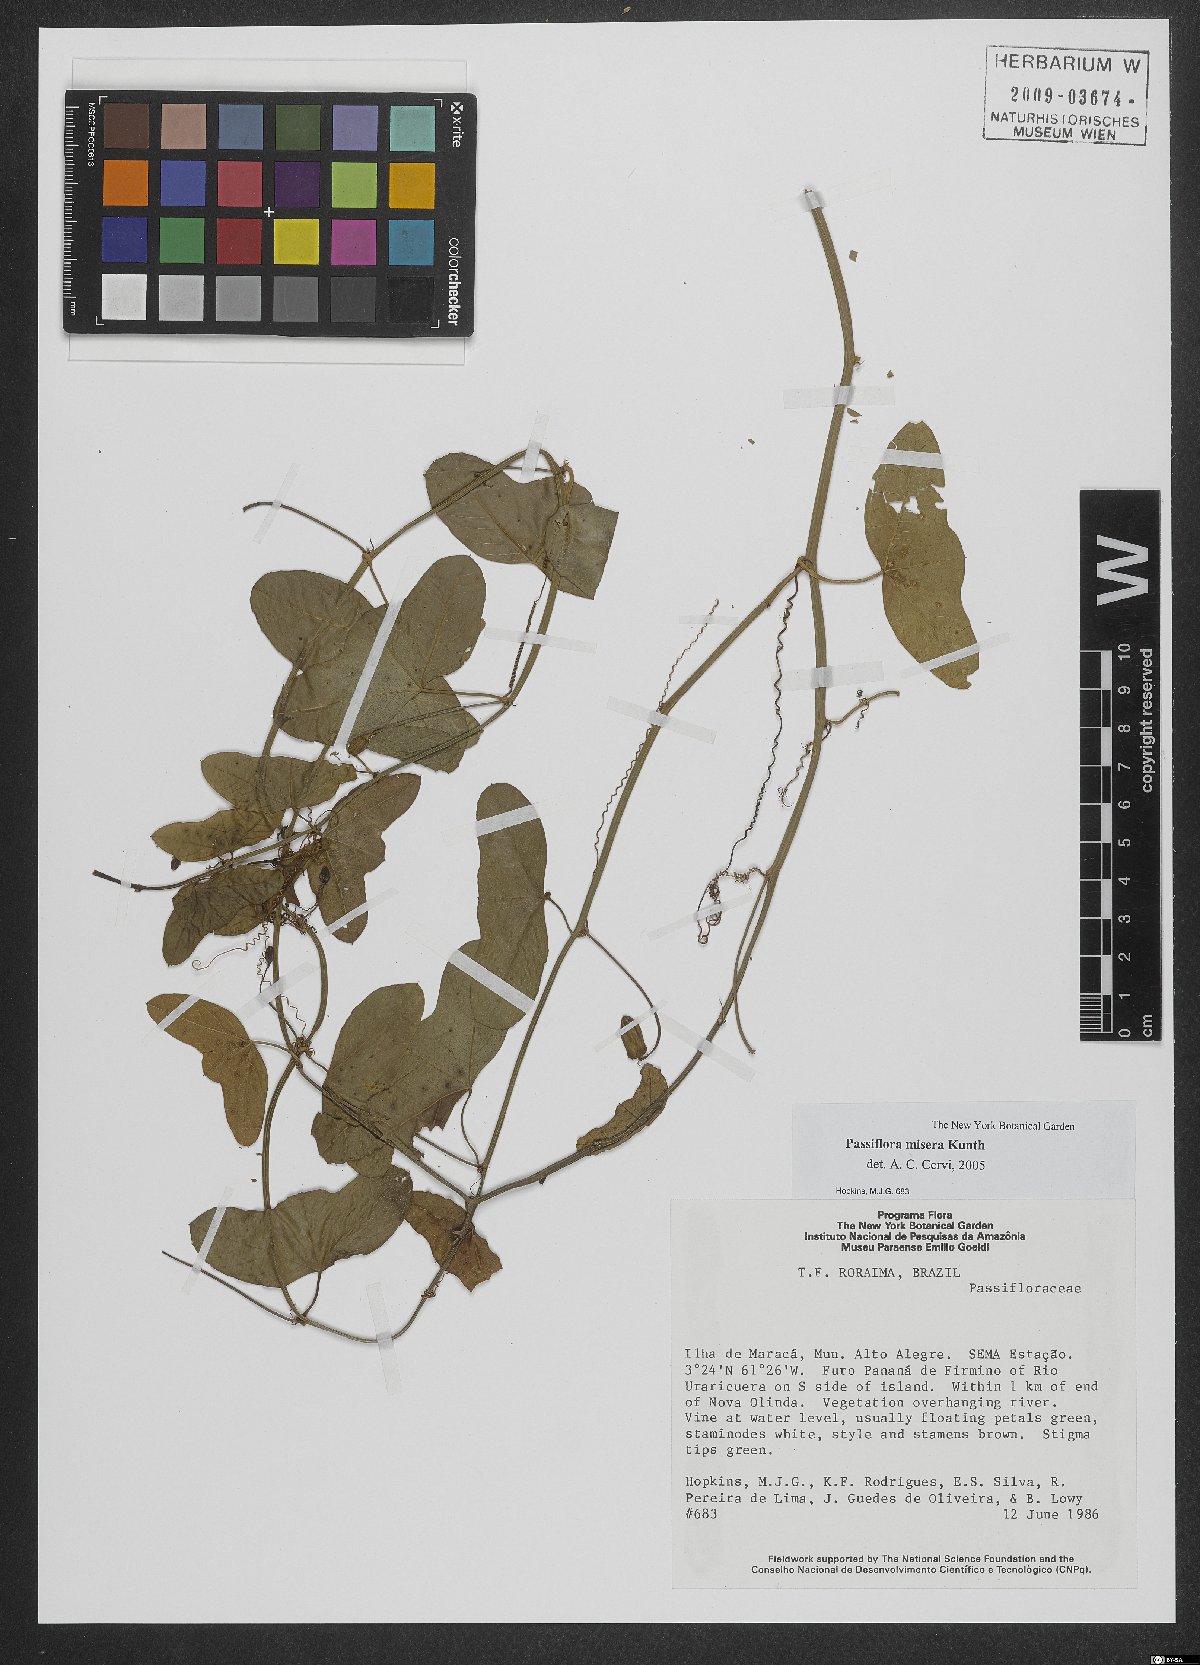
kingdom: Plantae
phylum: Tracheophyta
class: Magnoliopsida
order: Malpighiales
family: Passifloraceae
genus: Passiflora
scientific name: Passiflora misera
